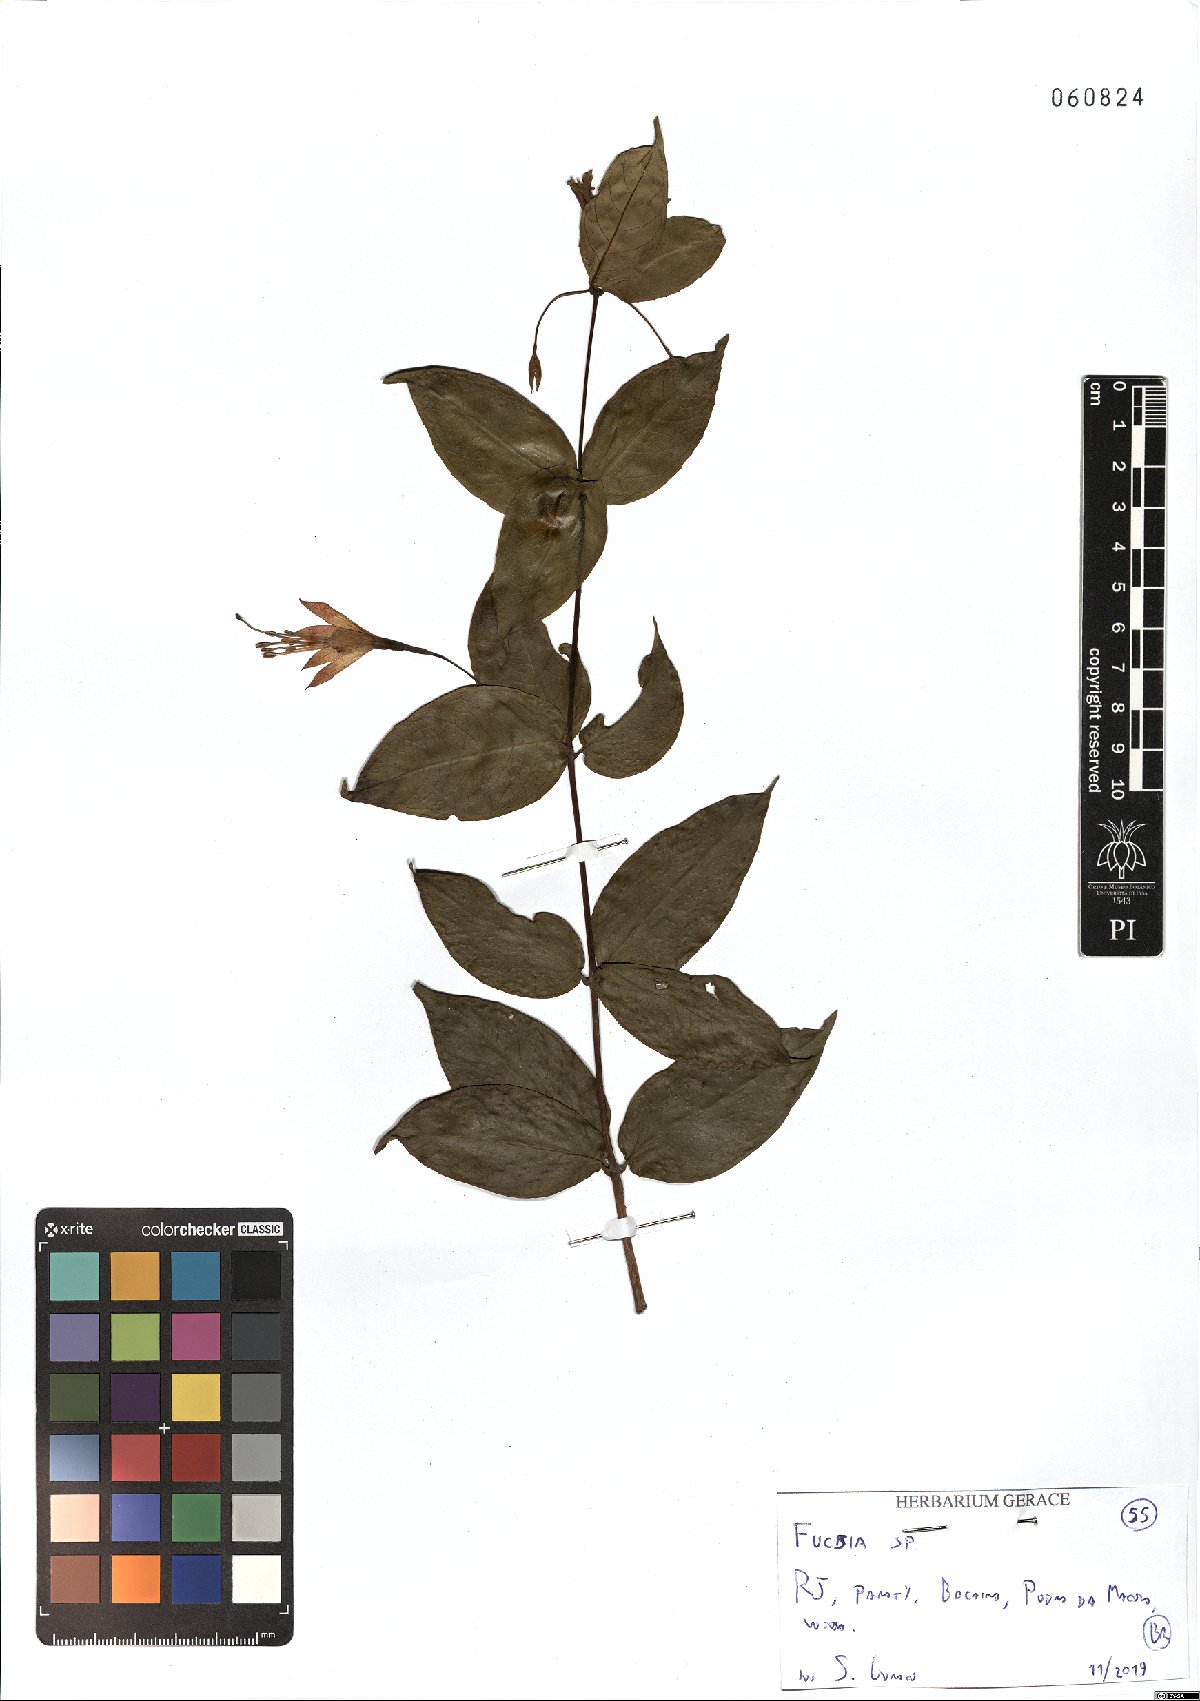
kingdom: Plantae
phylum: Tracheophyta
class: Magnoliopsida
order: Myrtales
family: Onagraceae
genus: Fuchsia
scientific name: Fuchsia
